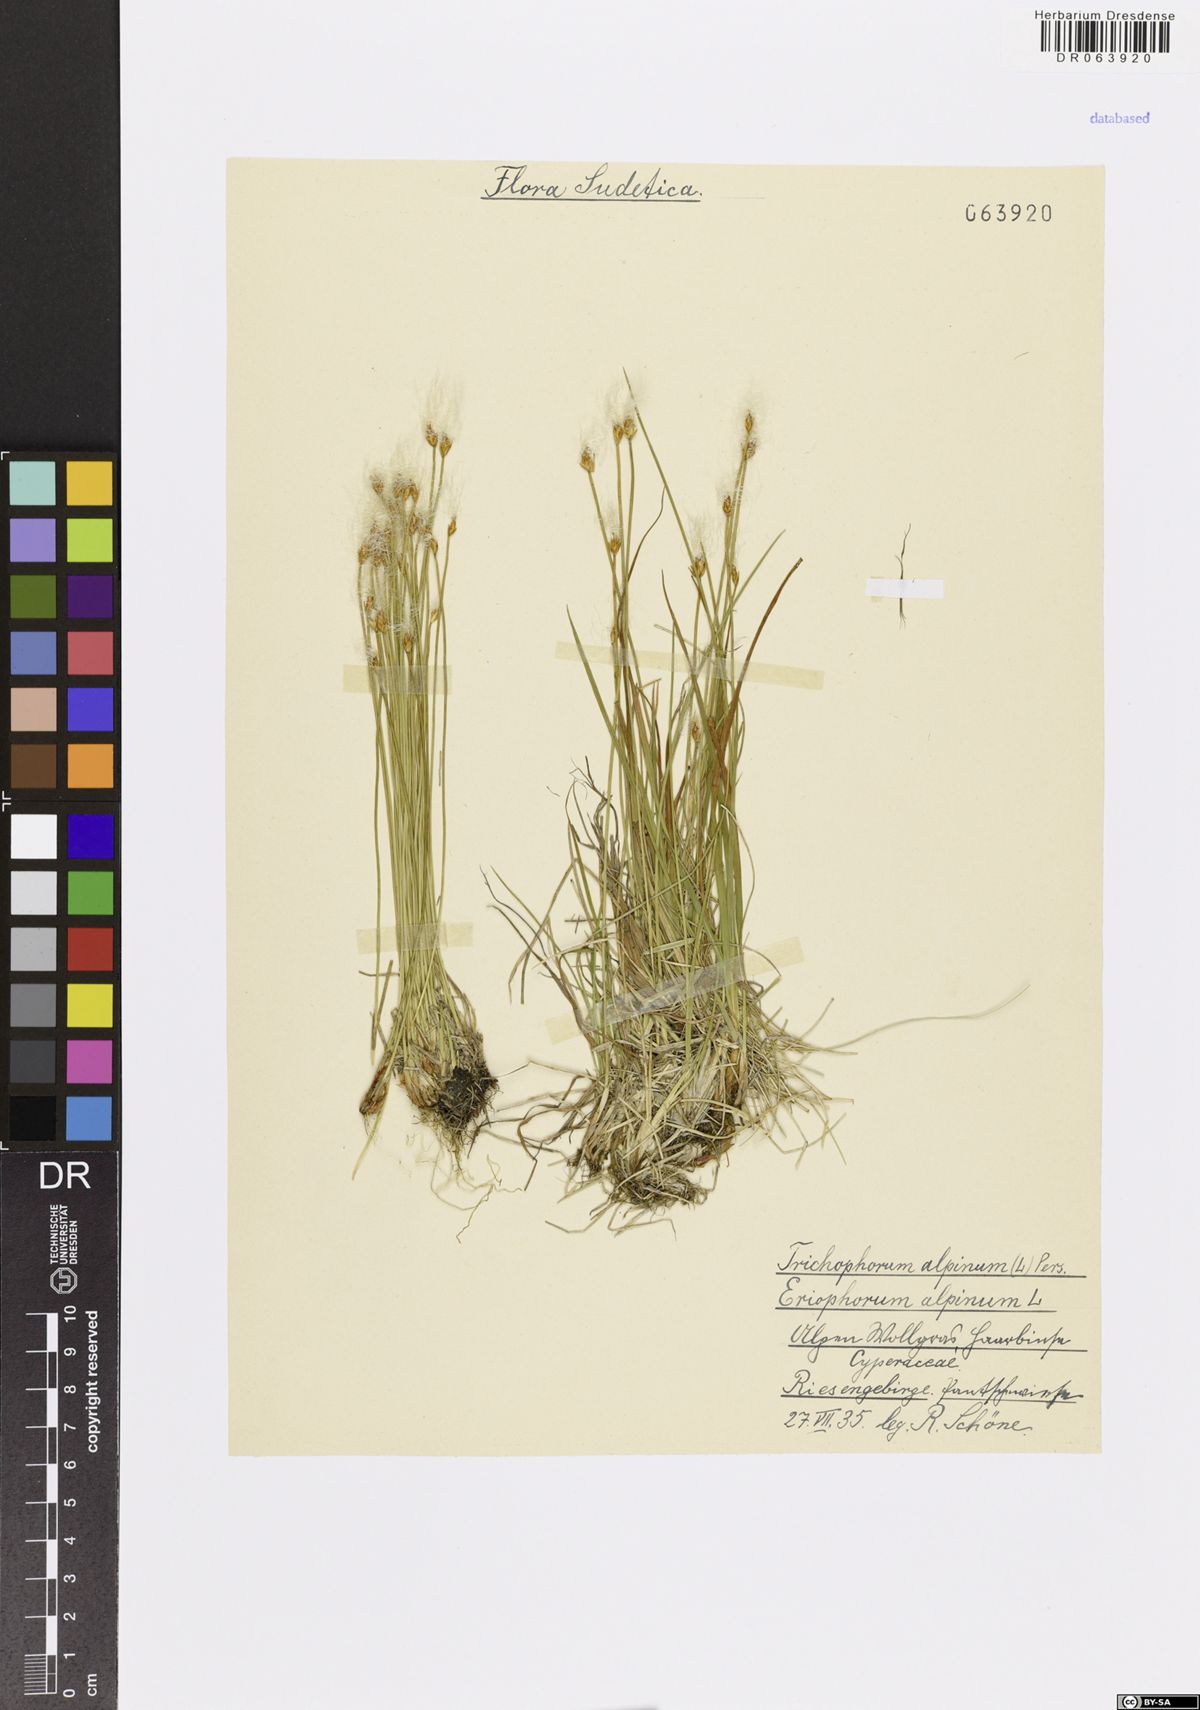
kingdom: Plantae
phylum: Tracheophyta
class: Liliopsida
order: Poales
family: Cyperaceae
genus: Trichophorum
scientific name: Trichophorum alpinum
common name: Alpine bulrush
